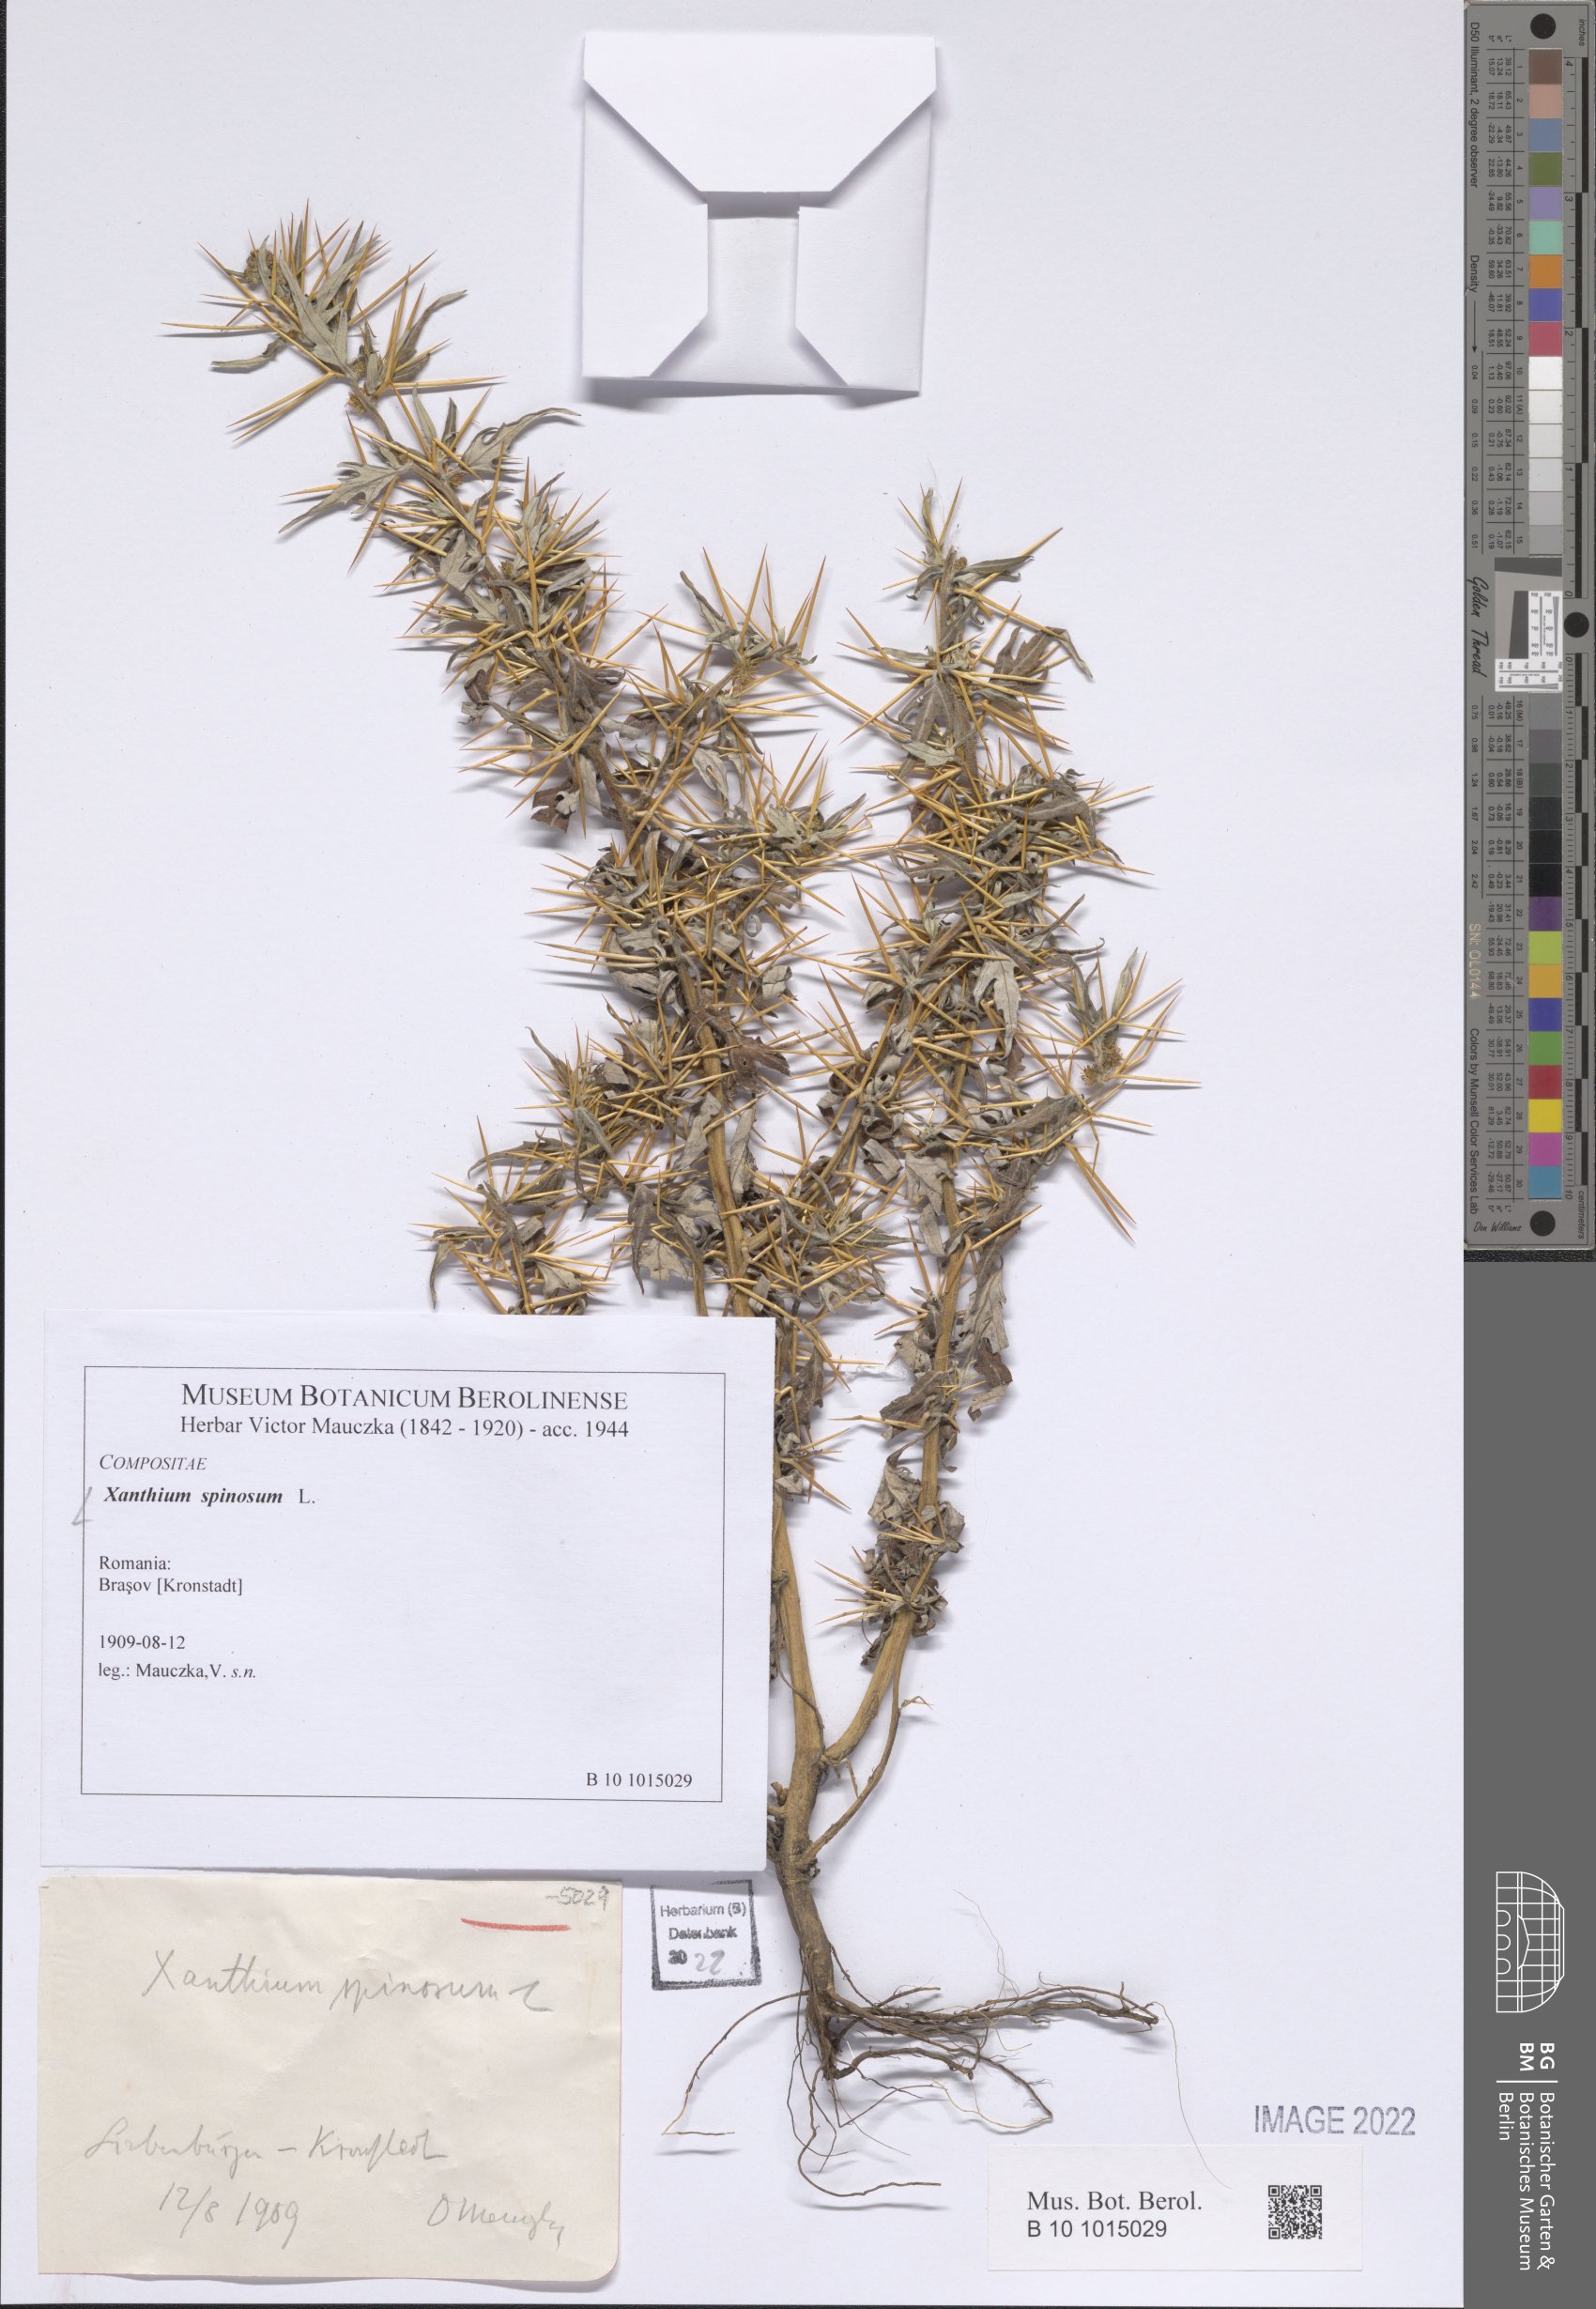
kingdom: Plantae
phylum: Tracheophyta
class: Magnoliopsida
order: Asterales
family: Asteraceae
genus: Xanthium
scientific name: Xanthium spinosum
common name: Spiny cocklebur
